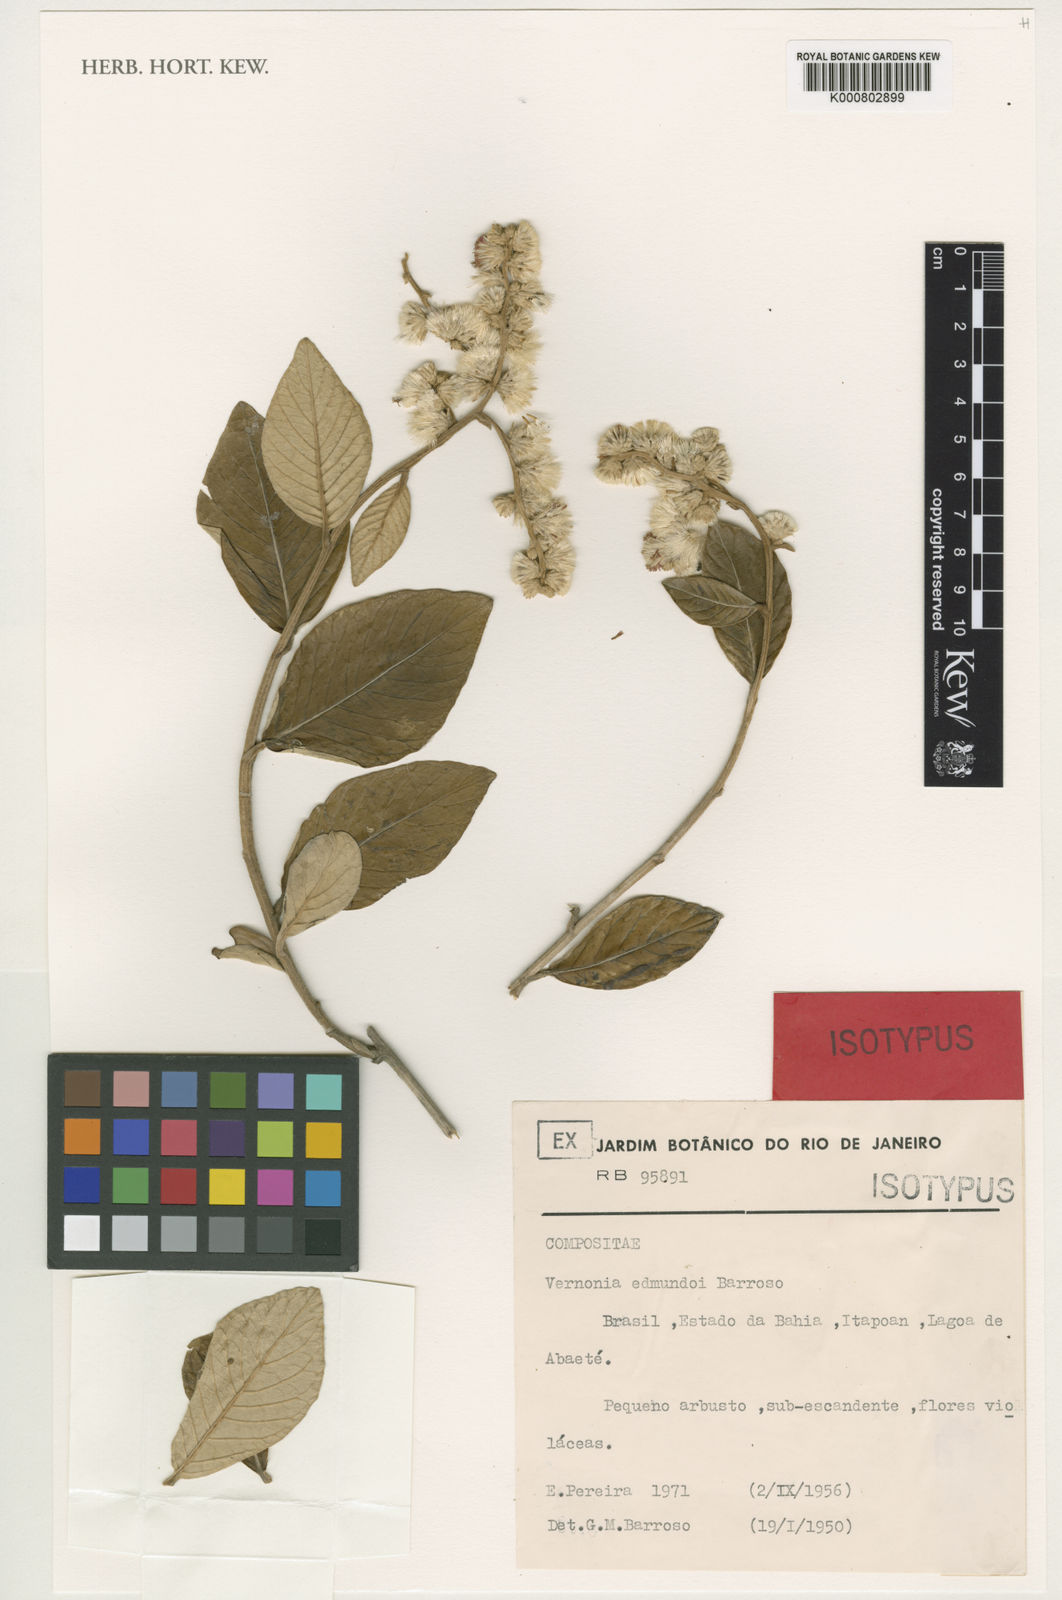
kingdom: Plantae
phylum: Tracheophyta
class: Magnoliopsida
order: Asterales
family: Asteraceae
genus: Lepidaploa
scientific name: Lepidaploa edmundoi
